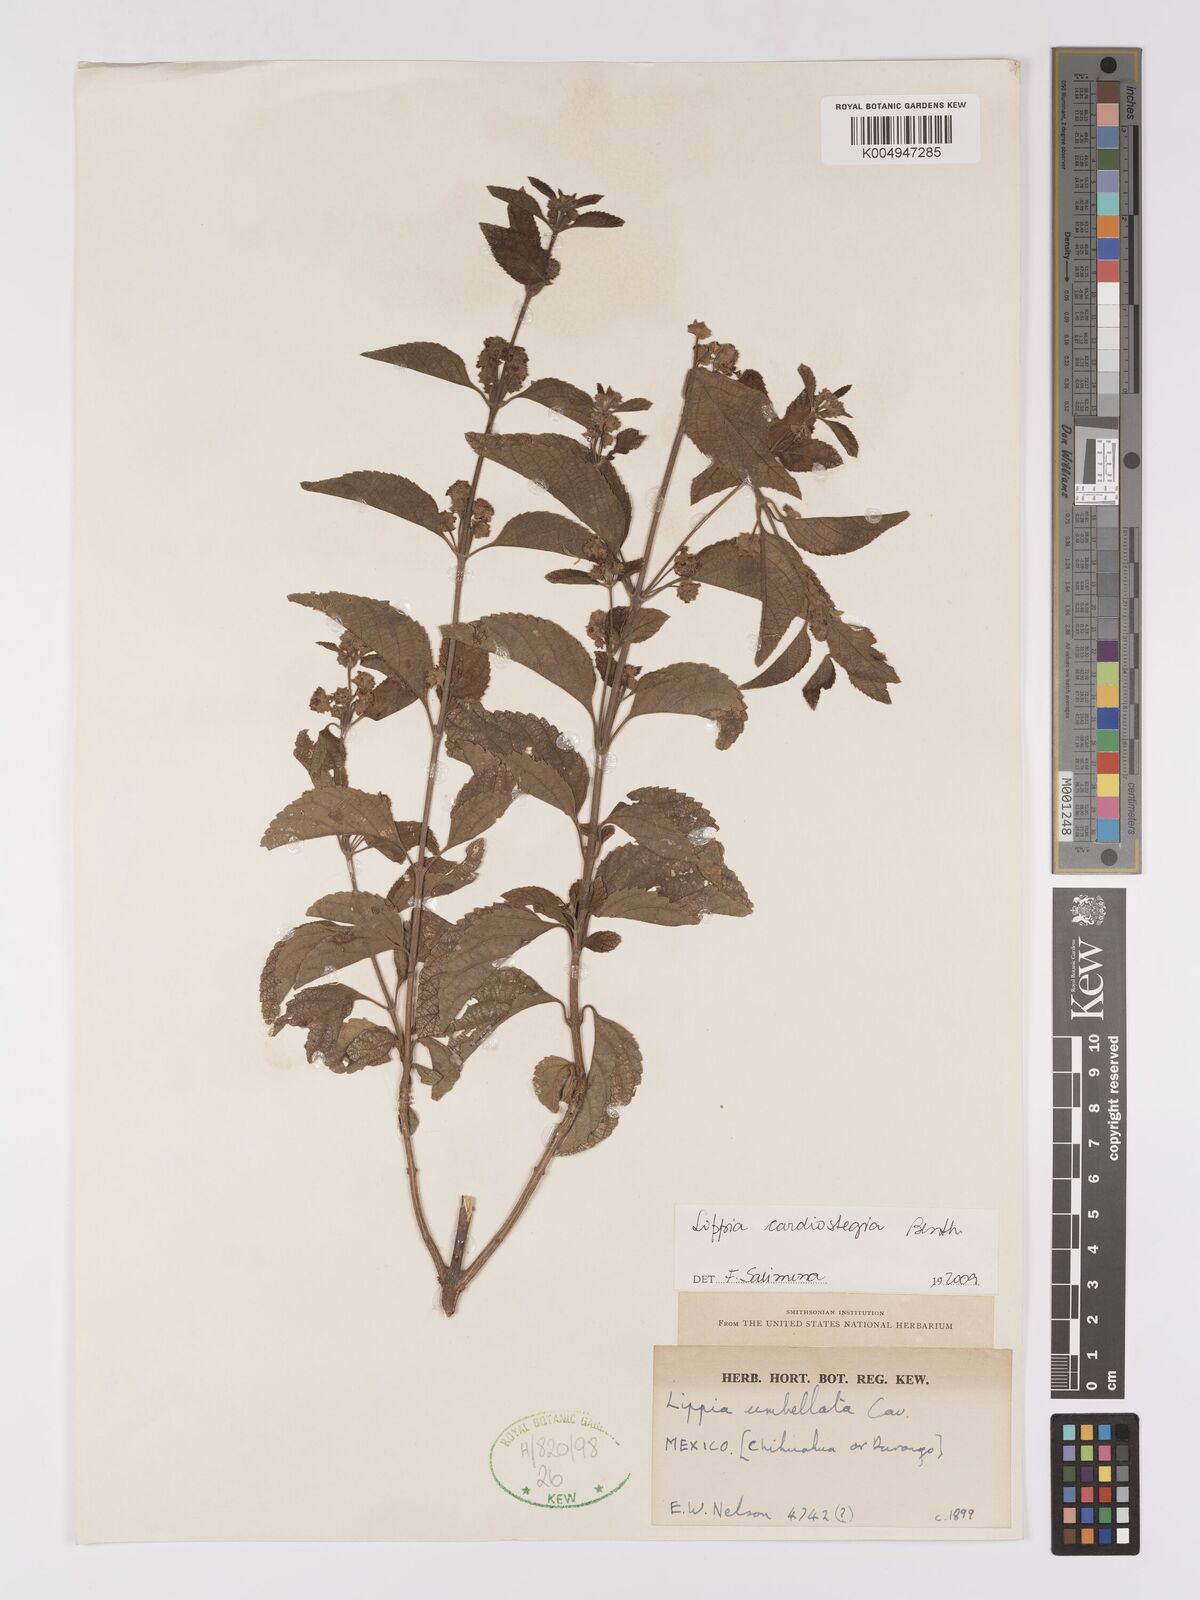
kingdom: Plantae
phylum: Tracheophyta
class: Magnoliopsida
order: Lamiales
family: Verbenaceae
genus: Lippia
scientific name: Lippia cardiostegia
